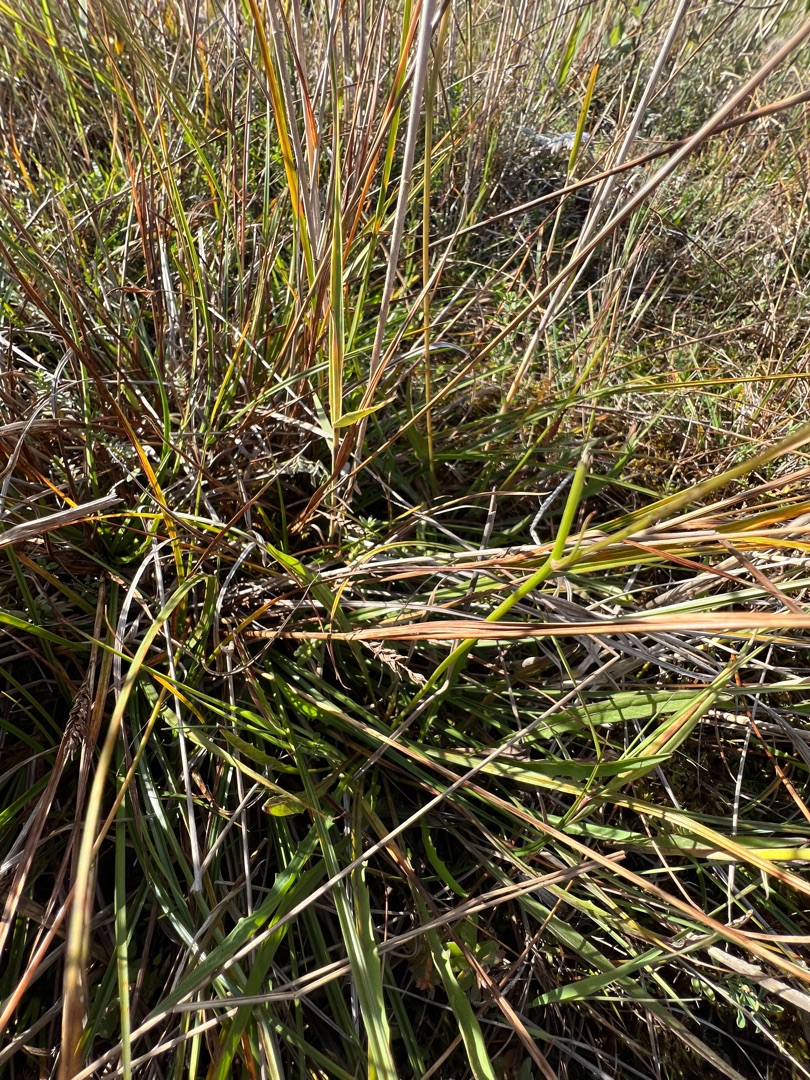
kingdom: Plantae
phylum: Tracheophyta
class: Liliopsida
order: Poales
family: Cyperaceae
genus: Carex
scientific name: Carex distans
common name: Fjernakset star
